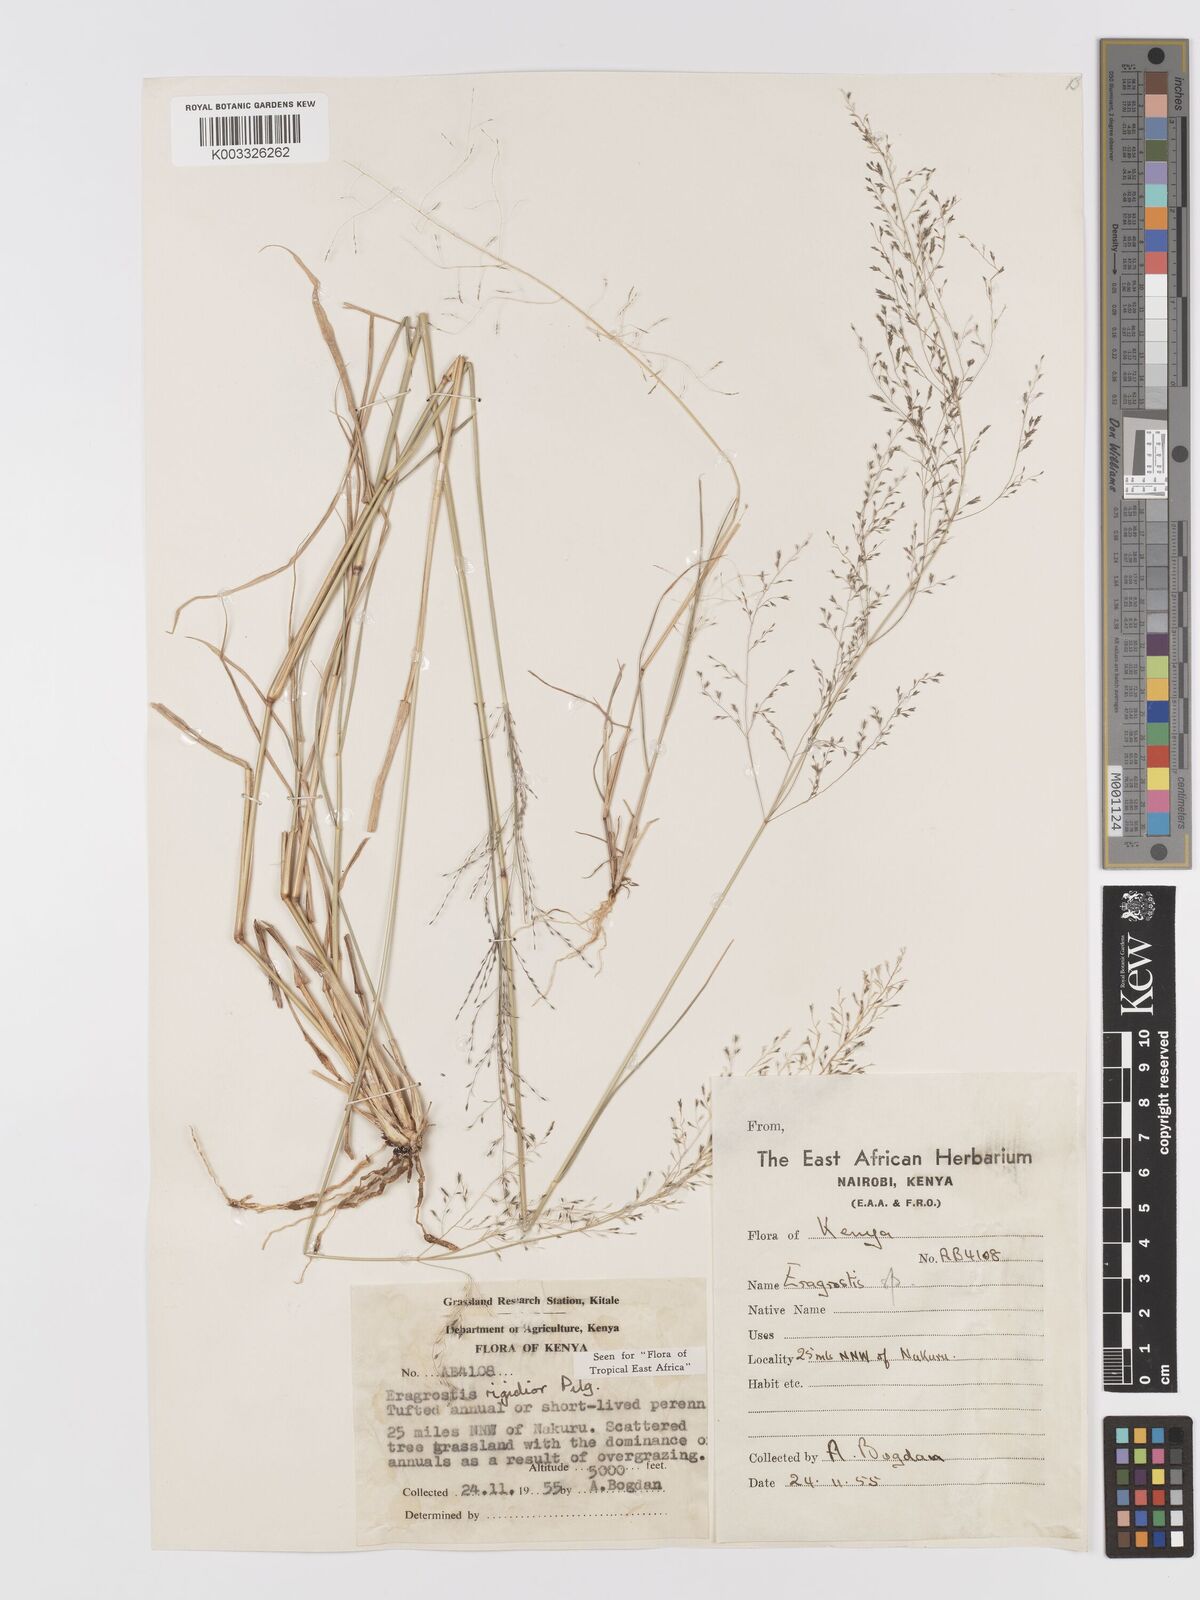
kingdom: Plantae
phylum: Tracheophyta
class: Liliopsida
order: Poales
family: Poaceae
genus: Eragrostis
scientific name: Eragrostis cylindriflora
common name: Cylinderflower lovegrass
